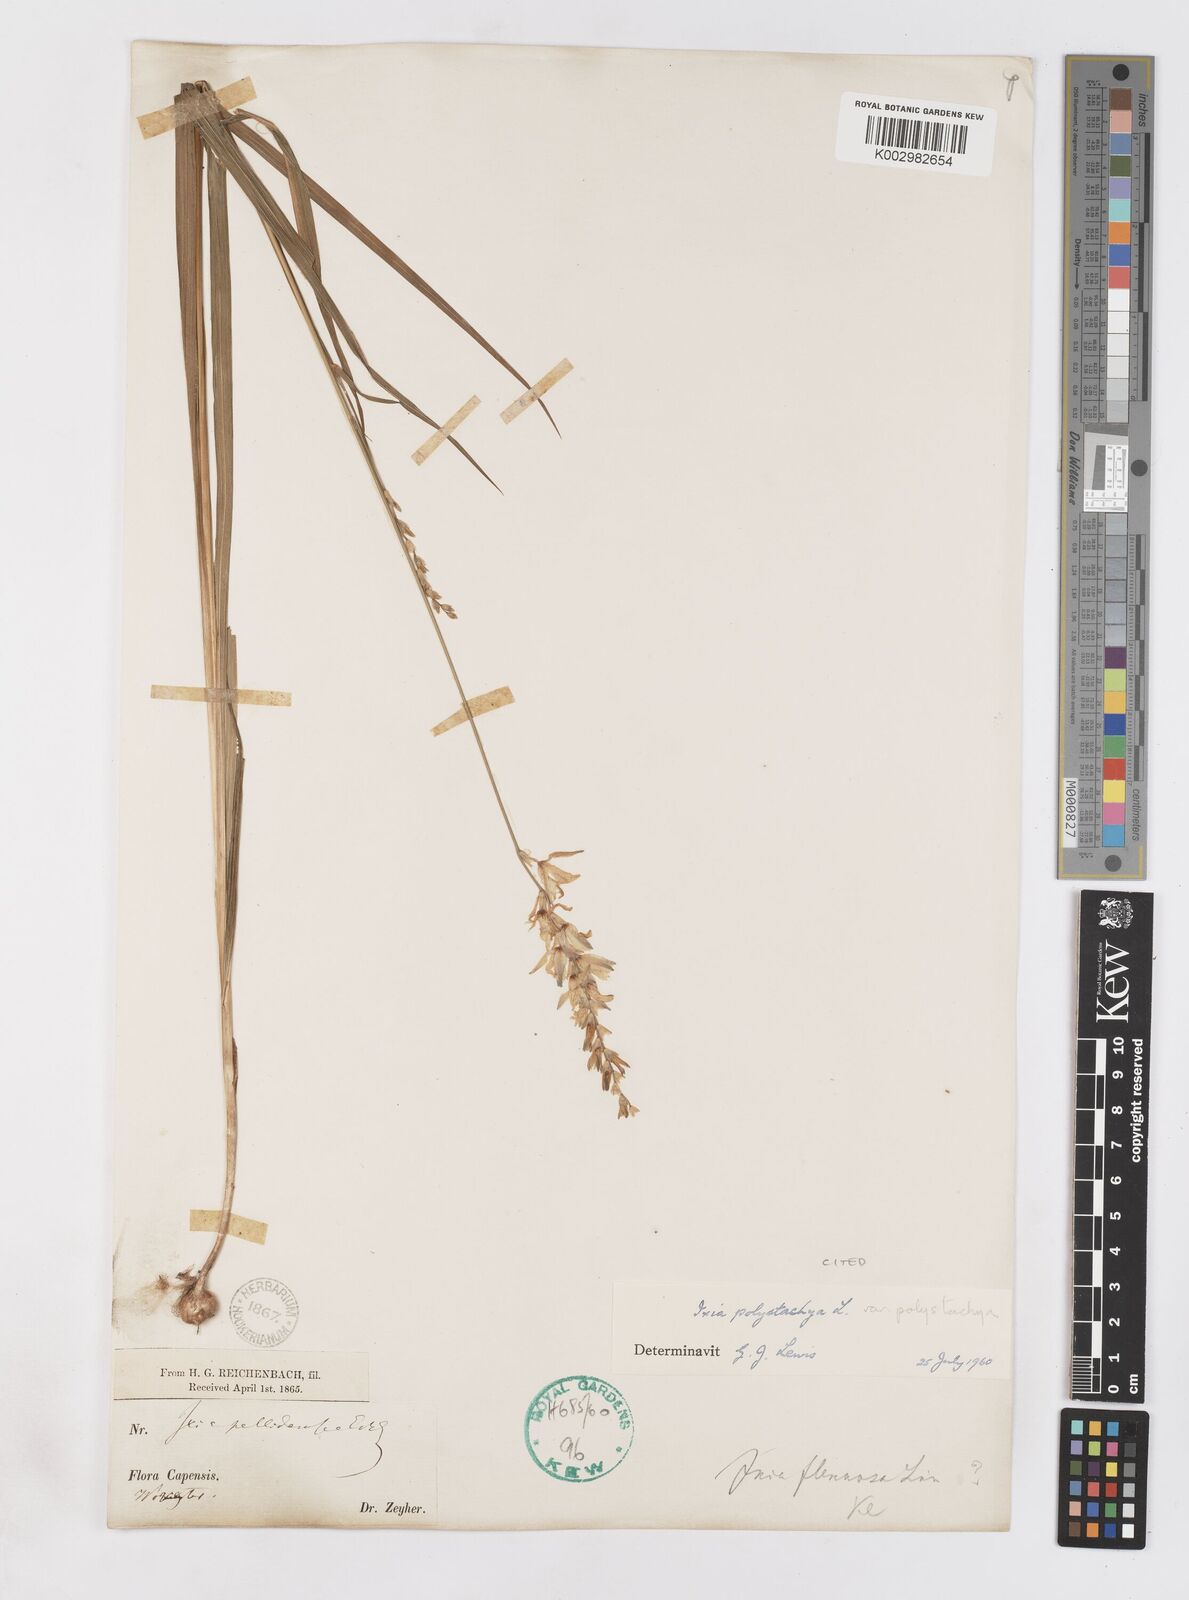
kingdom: Plantae
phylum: Tracheophyta
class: Liliopsida
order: Asparagales
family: Iridaceae
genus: Ixia
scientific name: Ixia polystachya
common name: White-and-yellow-flower cornlily
